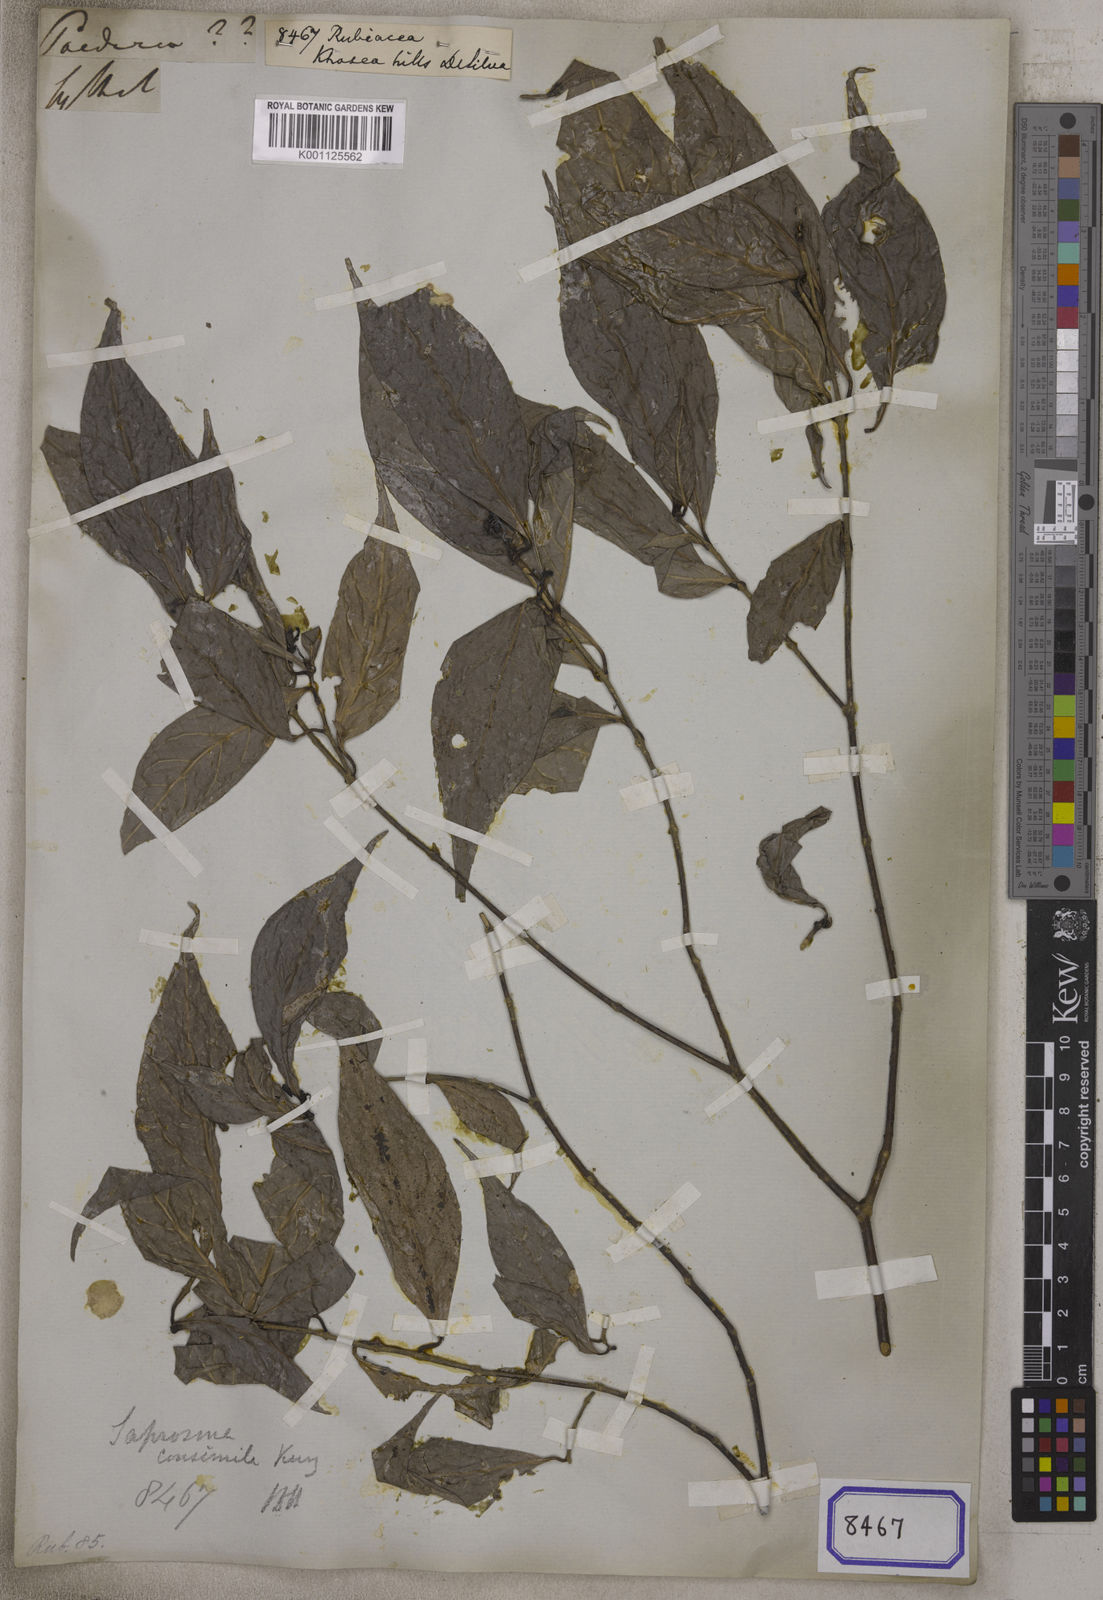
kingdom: Plantae
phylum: Tracheophyta
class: Magnoliopsida
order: Gentianales
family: Rubiaceae
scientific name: Rubiaceae
